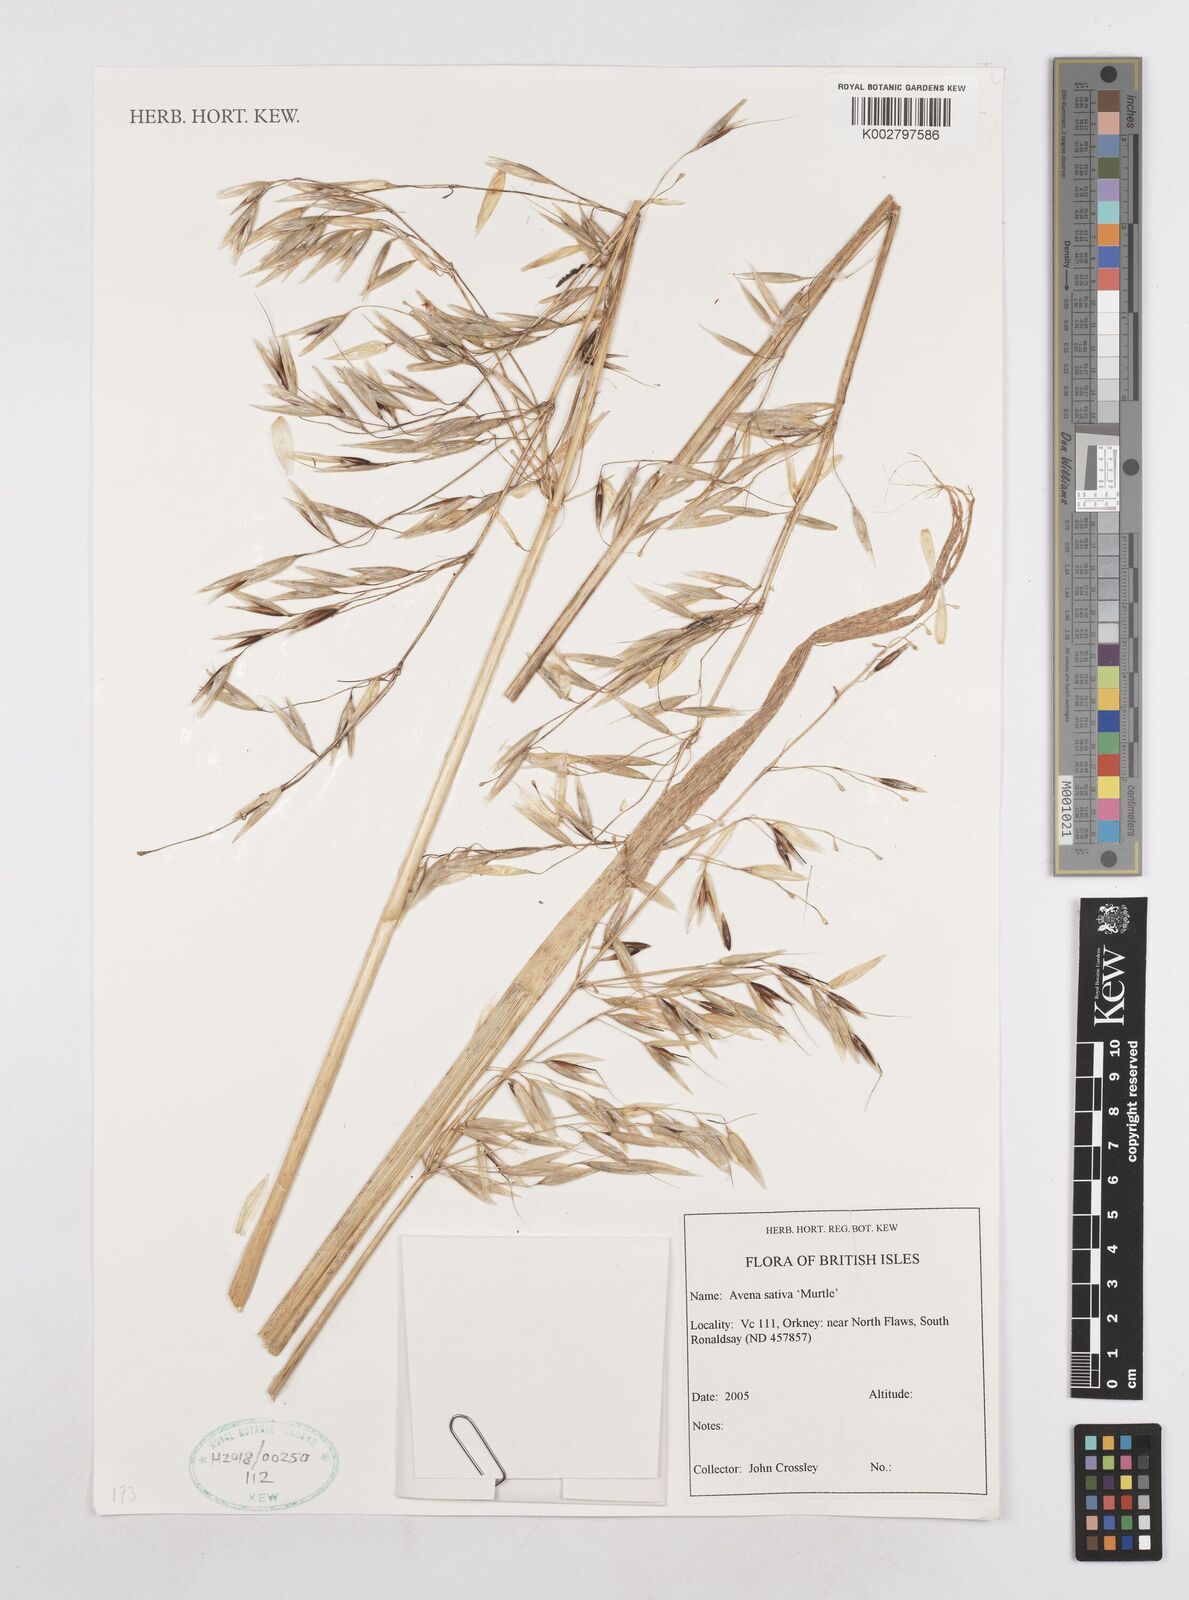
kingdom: Plantae
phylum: Tracheophyta
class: Liliopsida
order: Poales
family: Poaceae
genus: Avena
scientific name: Avena sativa
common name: Oat
